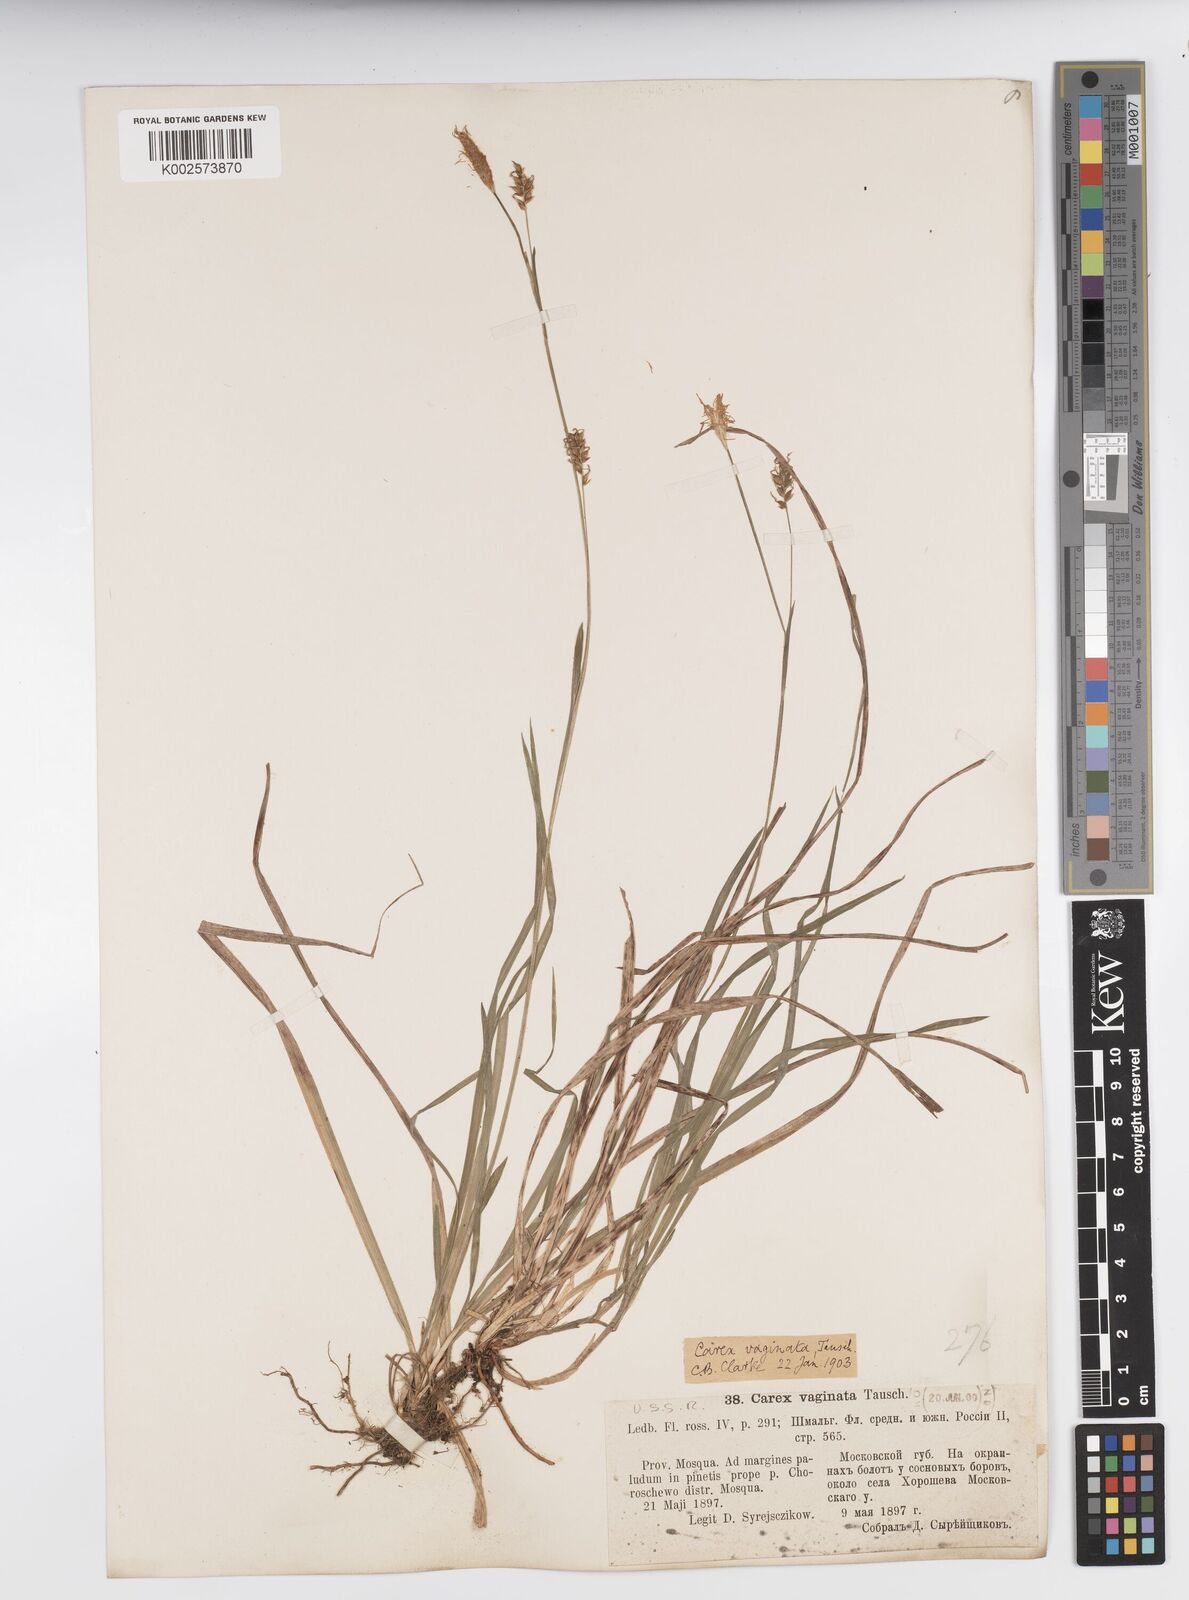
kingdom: Plantae
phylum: Tracheophyta
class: Liliopsida
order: Poales
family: Cyperaceae
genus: Carex
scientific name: Carex vaginata
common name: Sheathed sedge
